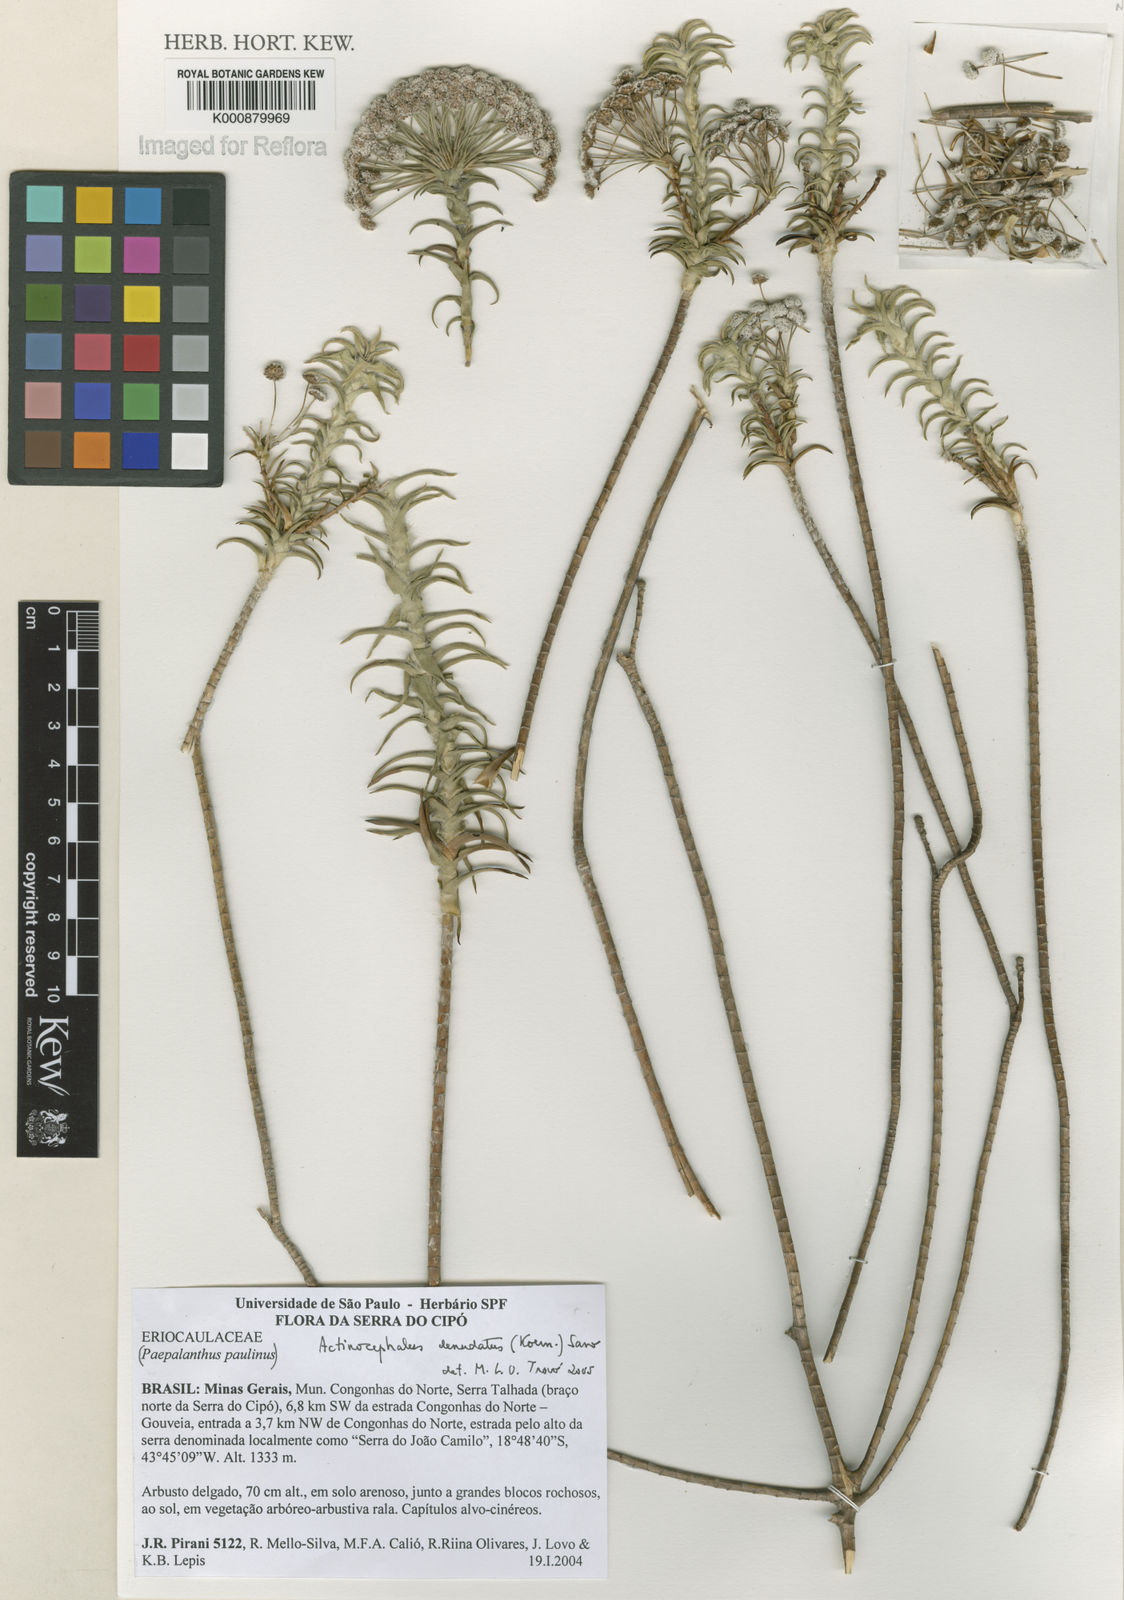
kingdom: Plantae
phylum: Tracheophyta
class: Liliopsida
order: Poales
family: Eriocaulaceae
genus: Paepalanthus
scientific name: Paepalanthus
